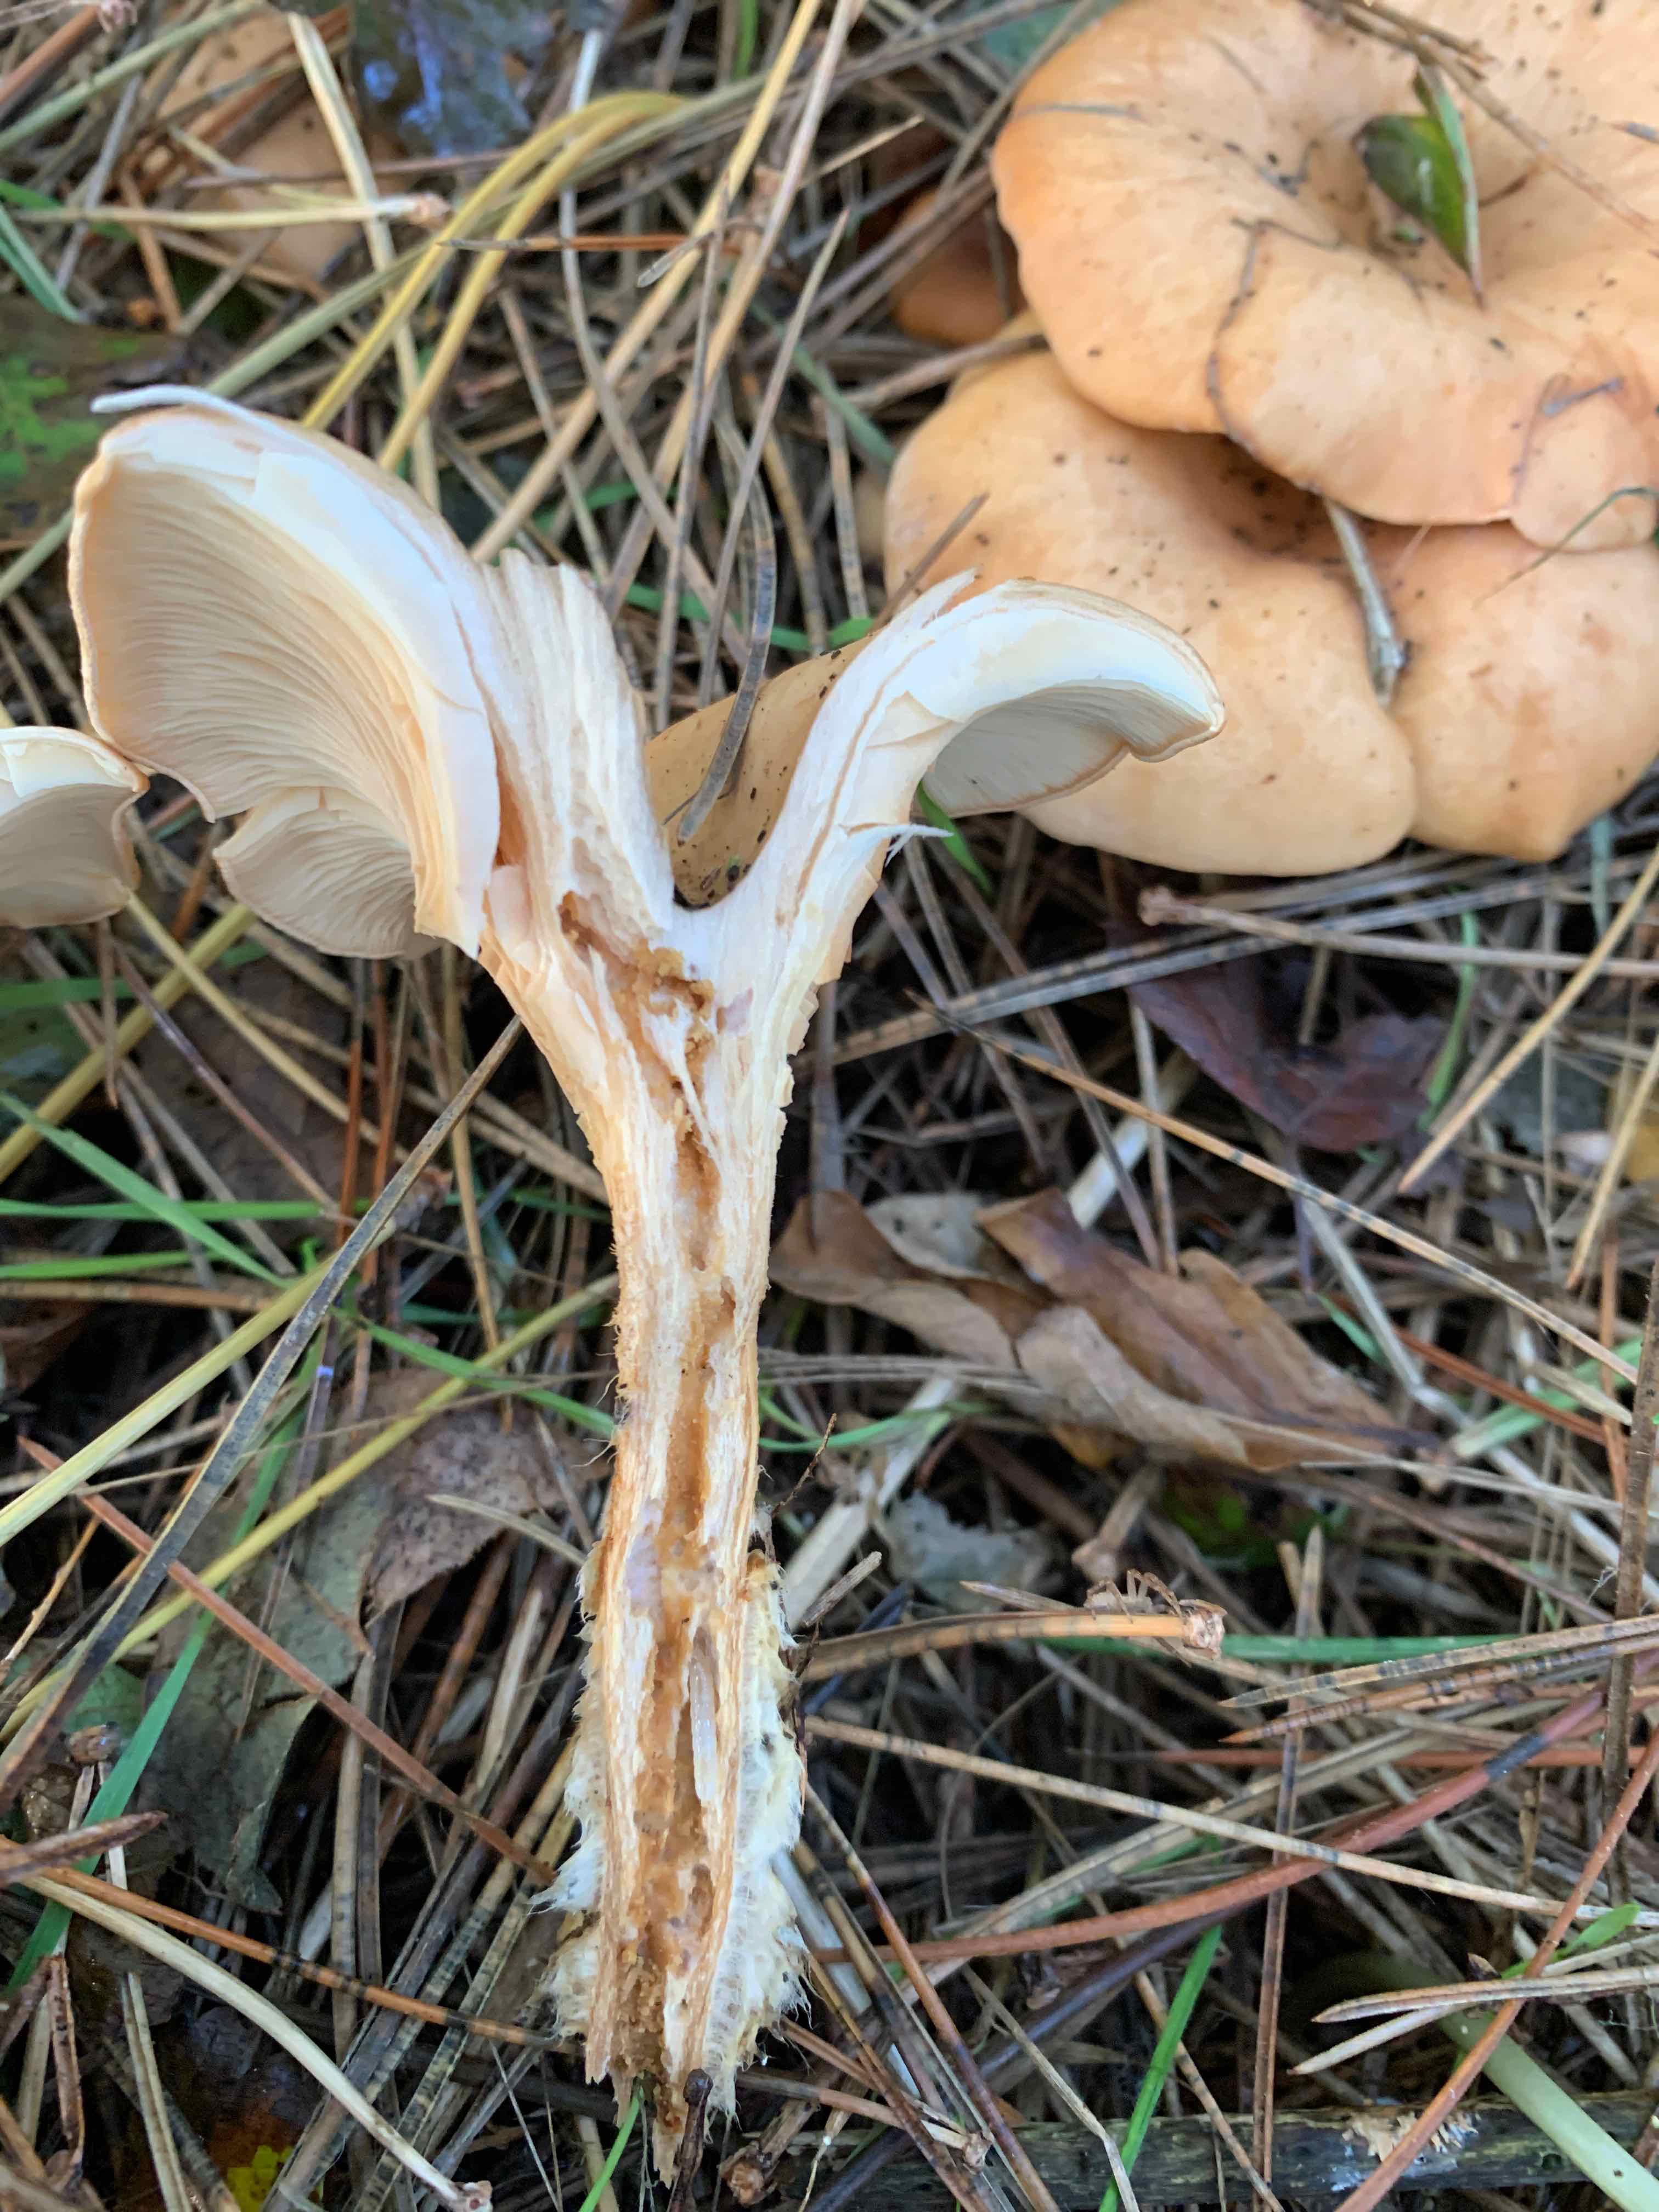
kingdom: Fungi
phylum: Basidiomycota
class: Agaricomycetes
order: Agaricales
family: Tricholomataceae
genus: Paralepista
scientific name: Paralepista flaccida
